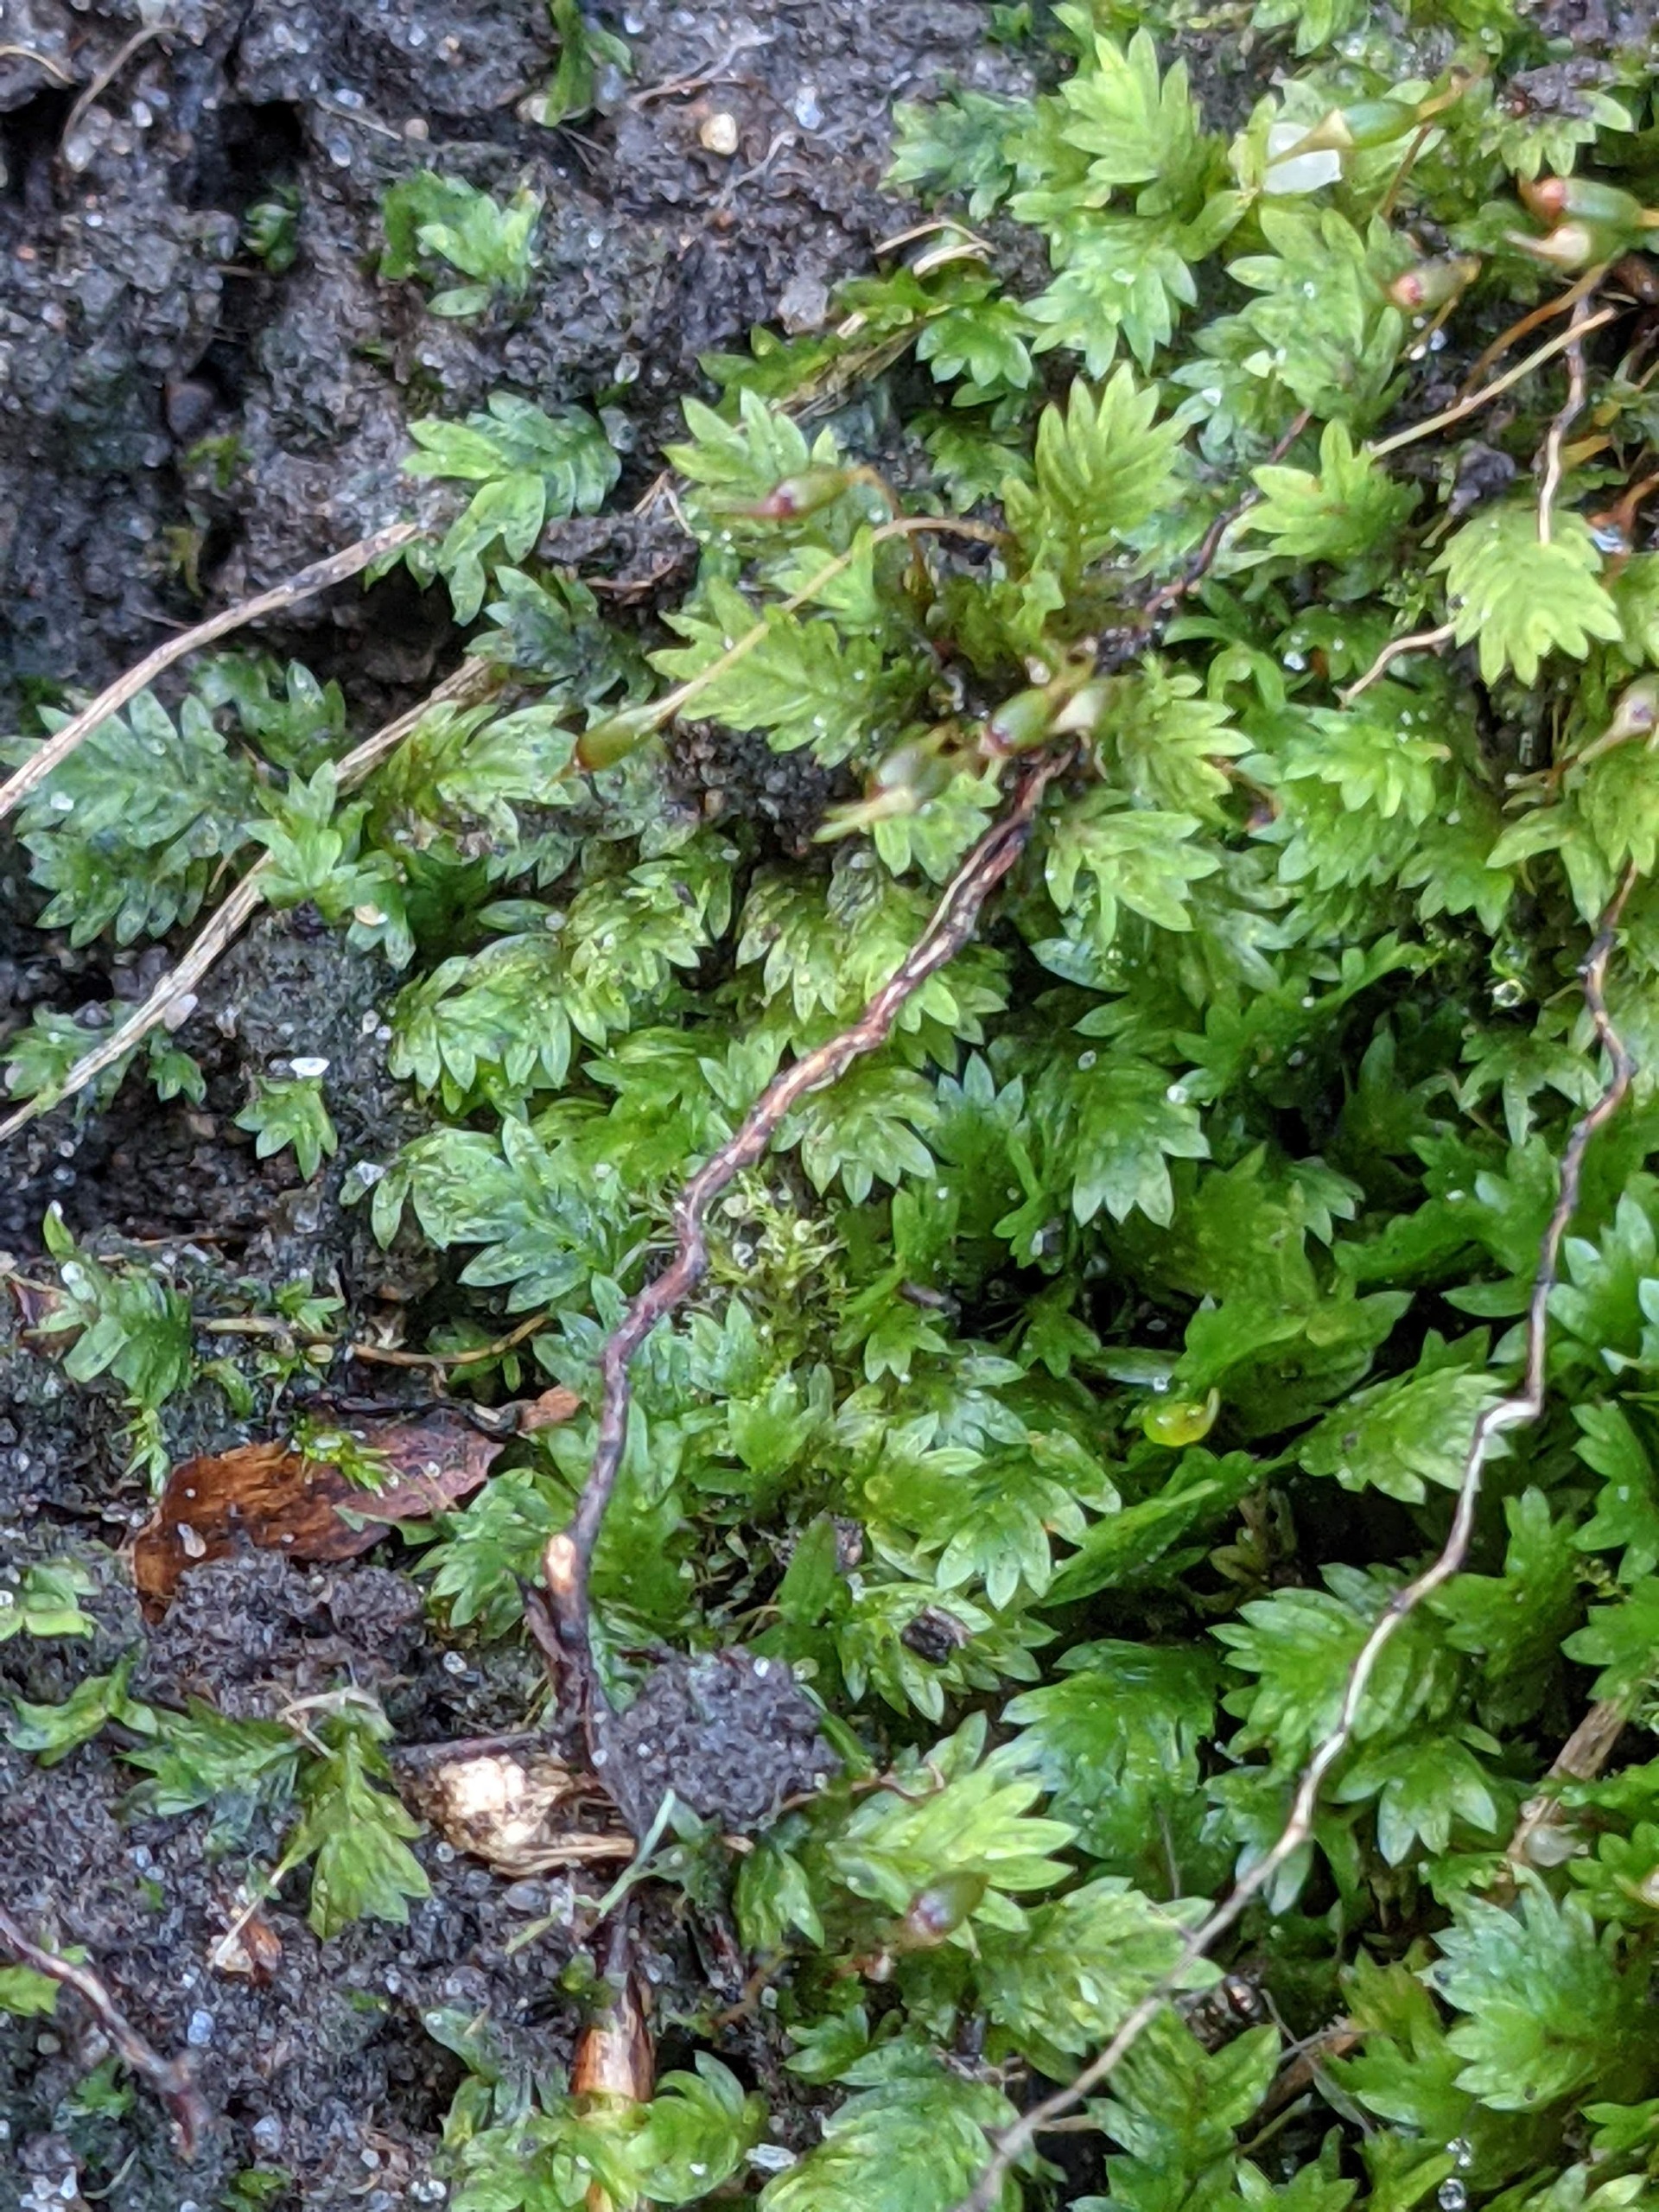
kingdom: Plantae
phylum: Bryophyta
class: Bryopsida
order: Dicranales
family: Fissidentaceae
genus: Fissidens
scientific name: Fissidens taxifolius
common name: Taksbladet rademos
